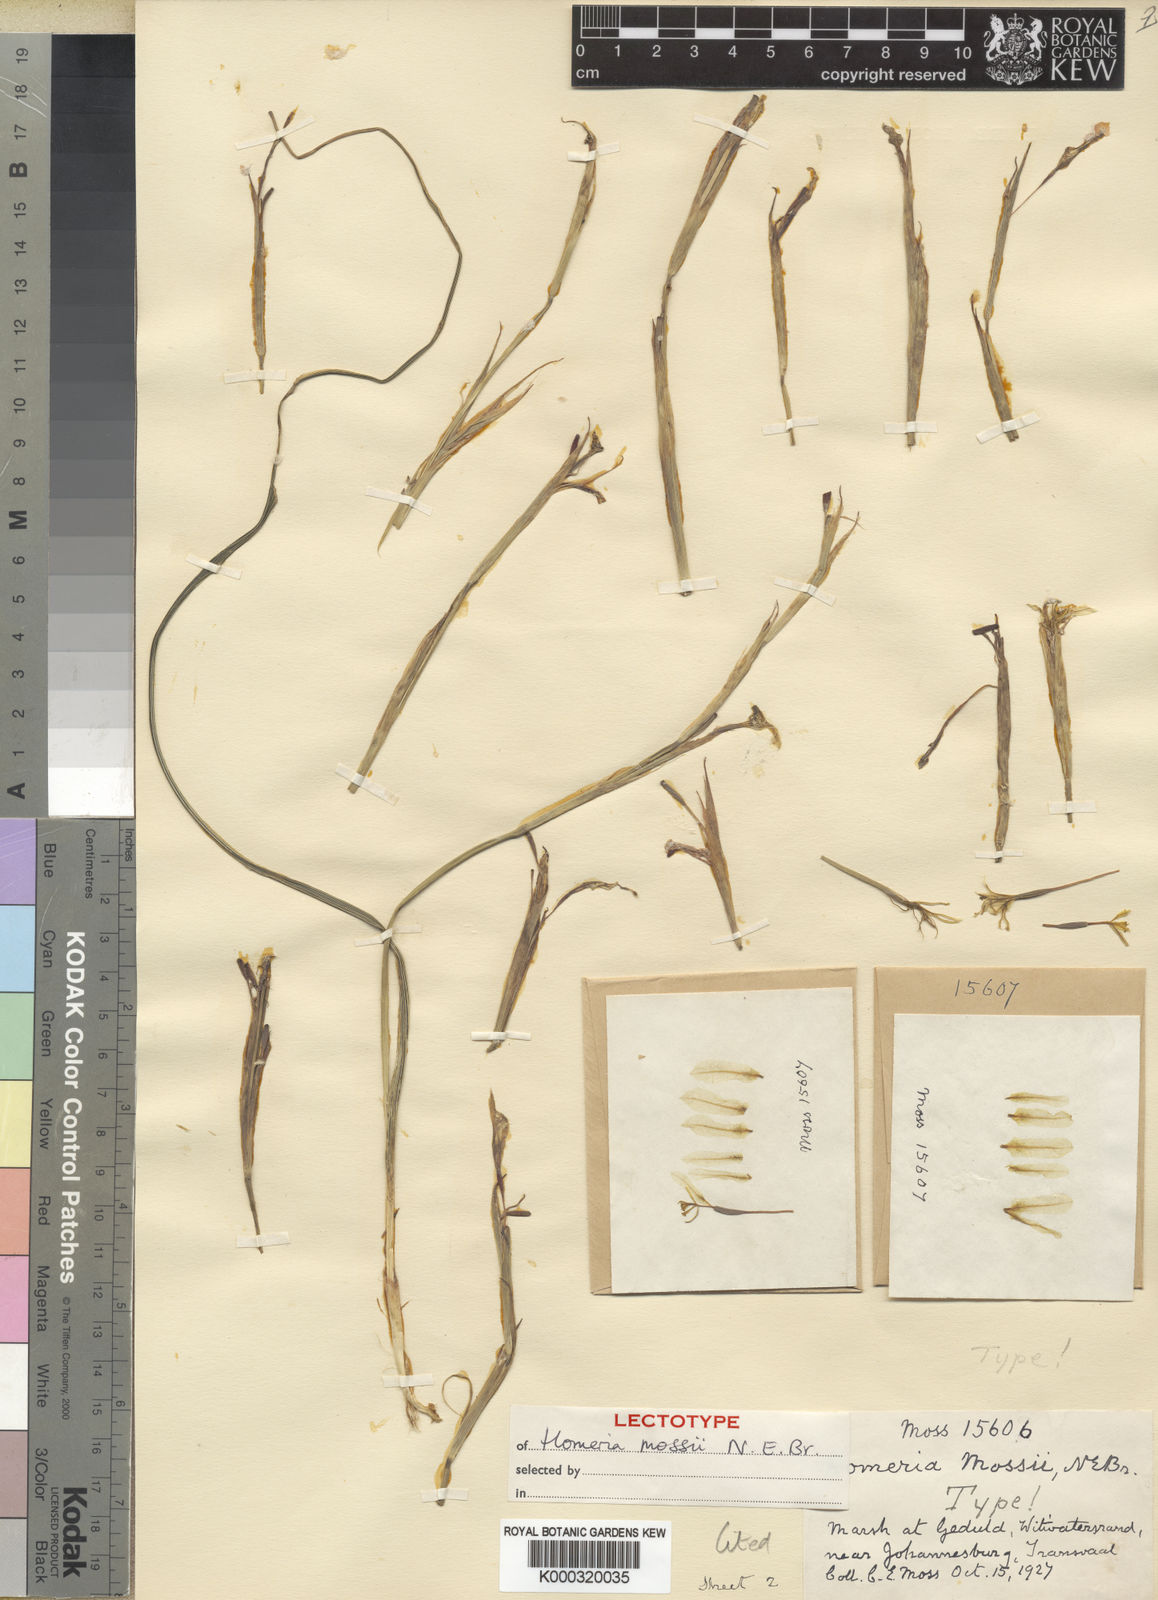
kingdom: Plantae
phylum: Tracheophyta
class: Liliopsida
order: Asparagales
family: Iridaceae
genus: Moraea
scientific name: Moraea pallida
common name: Yellow tulp
